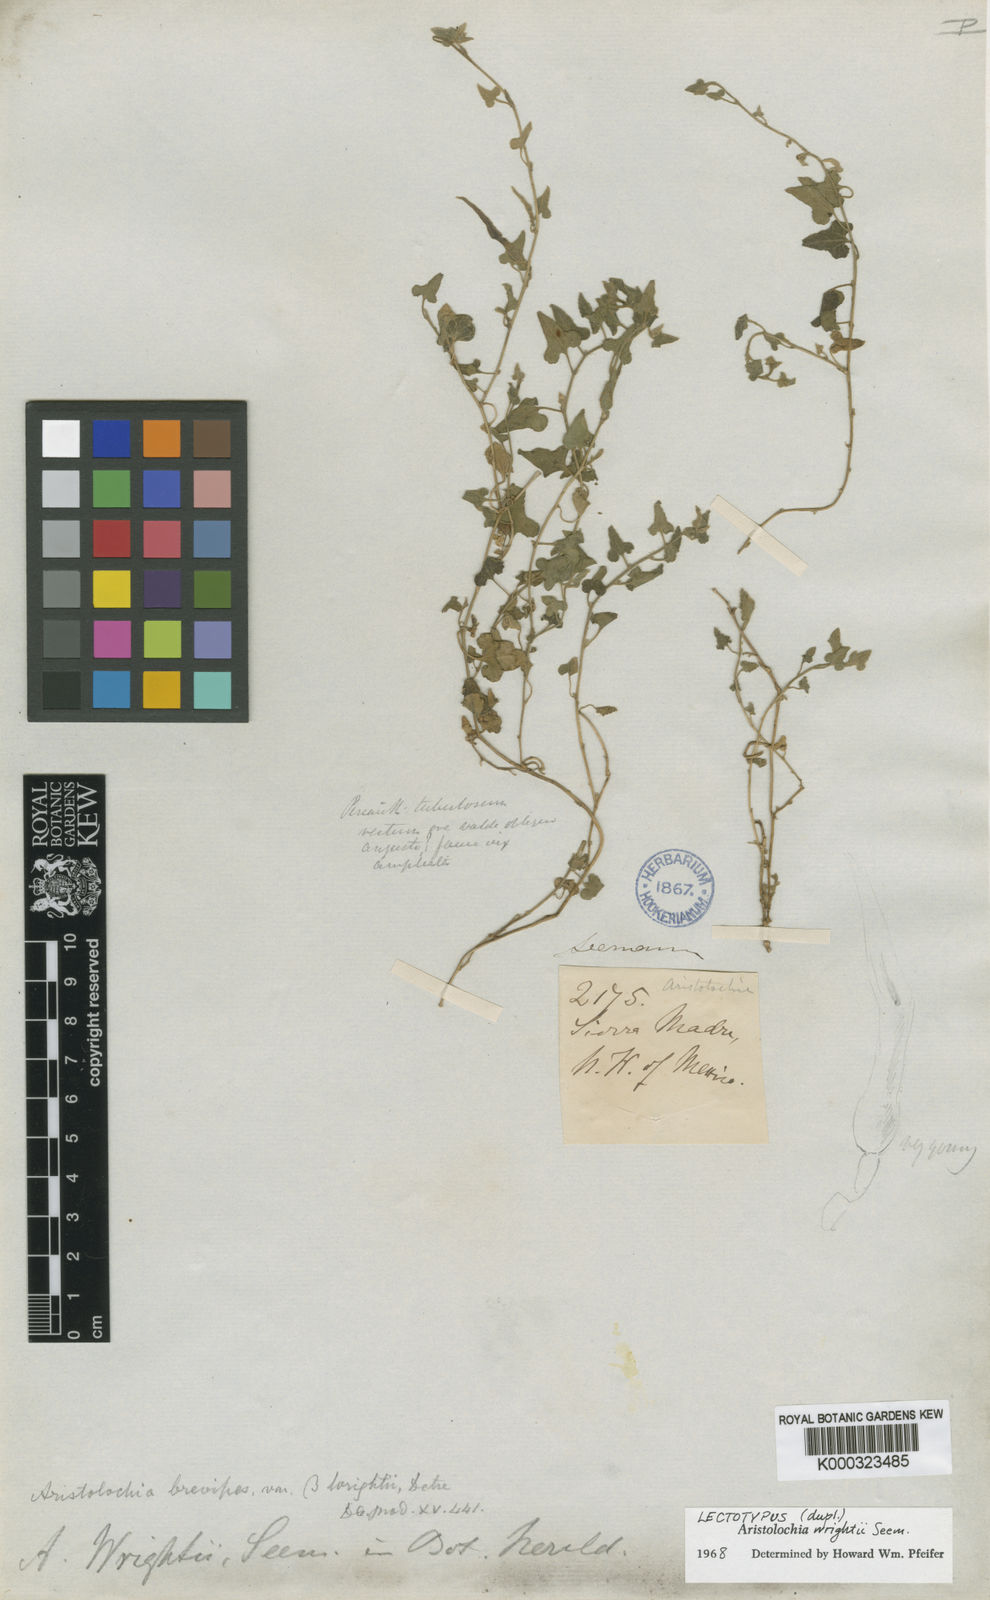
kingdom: Plantae
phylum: Tracheophyta
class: Magnoliopsida
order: Piperales
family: Aristolochiaceae
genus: Aristolochia
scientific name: Aristolochia wrightii
